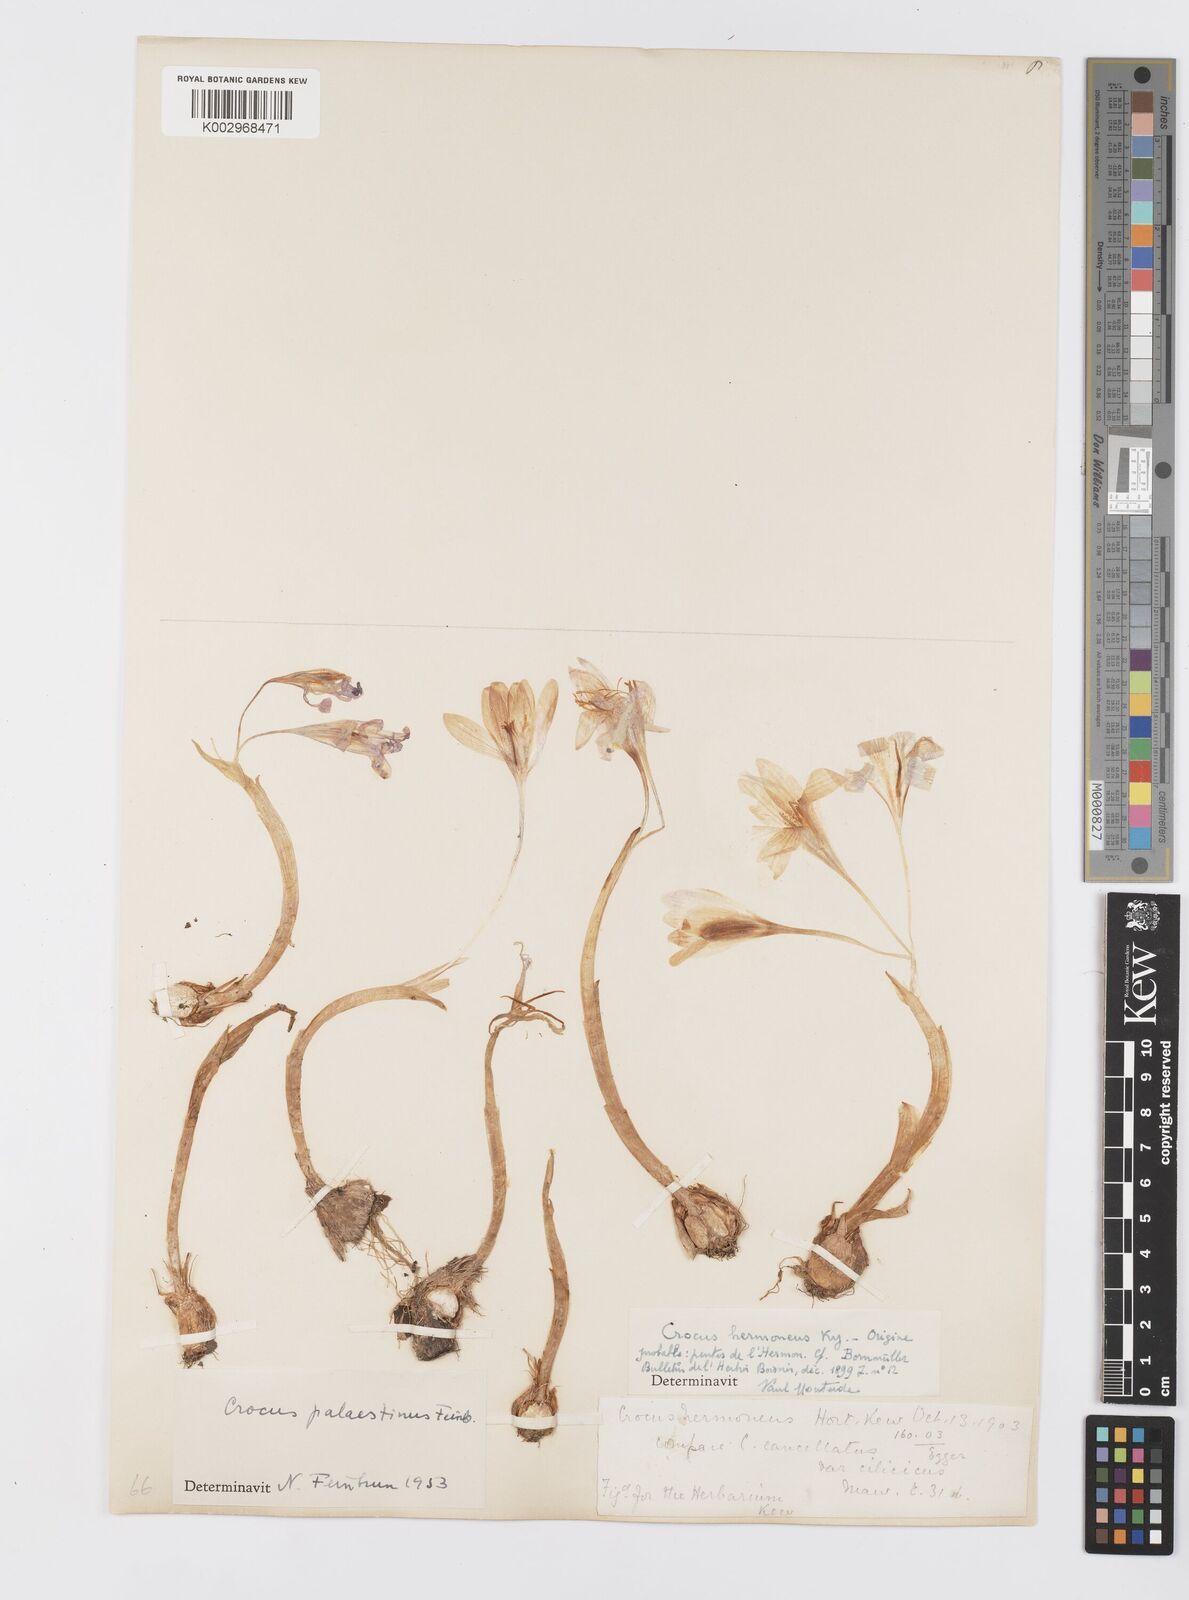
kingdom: Plantae
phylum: Tracheophyta
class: Liliopsida
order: Asparagales
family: Iridaceae
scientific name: Iridaceae
